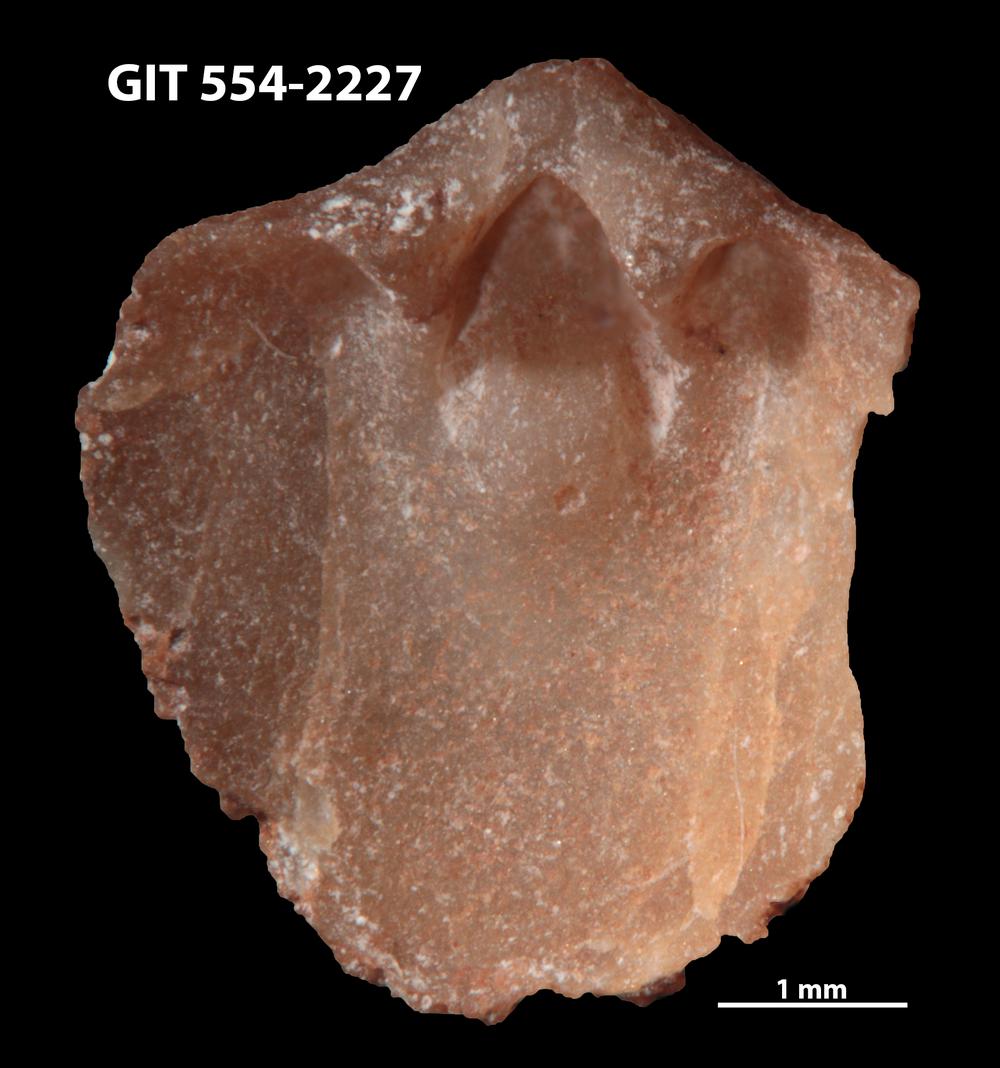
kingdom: Animalia
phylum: Brachiopoda
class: Rhynchonellata
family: Dalmanellidae
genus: Onniella
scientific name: Onniella trigona
